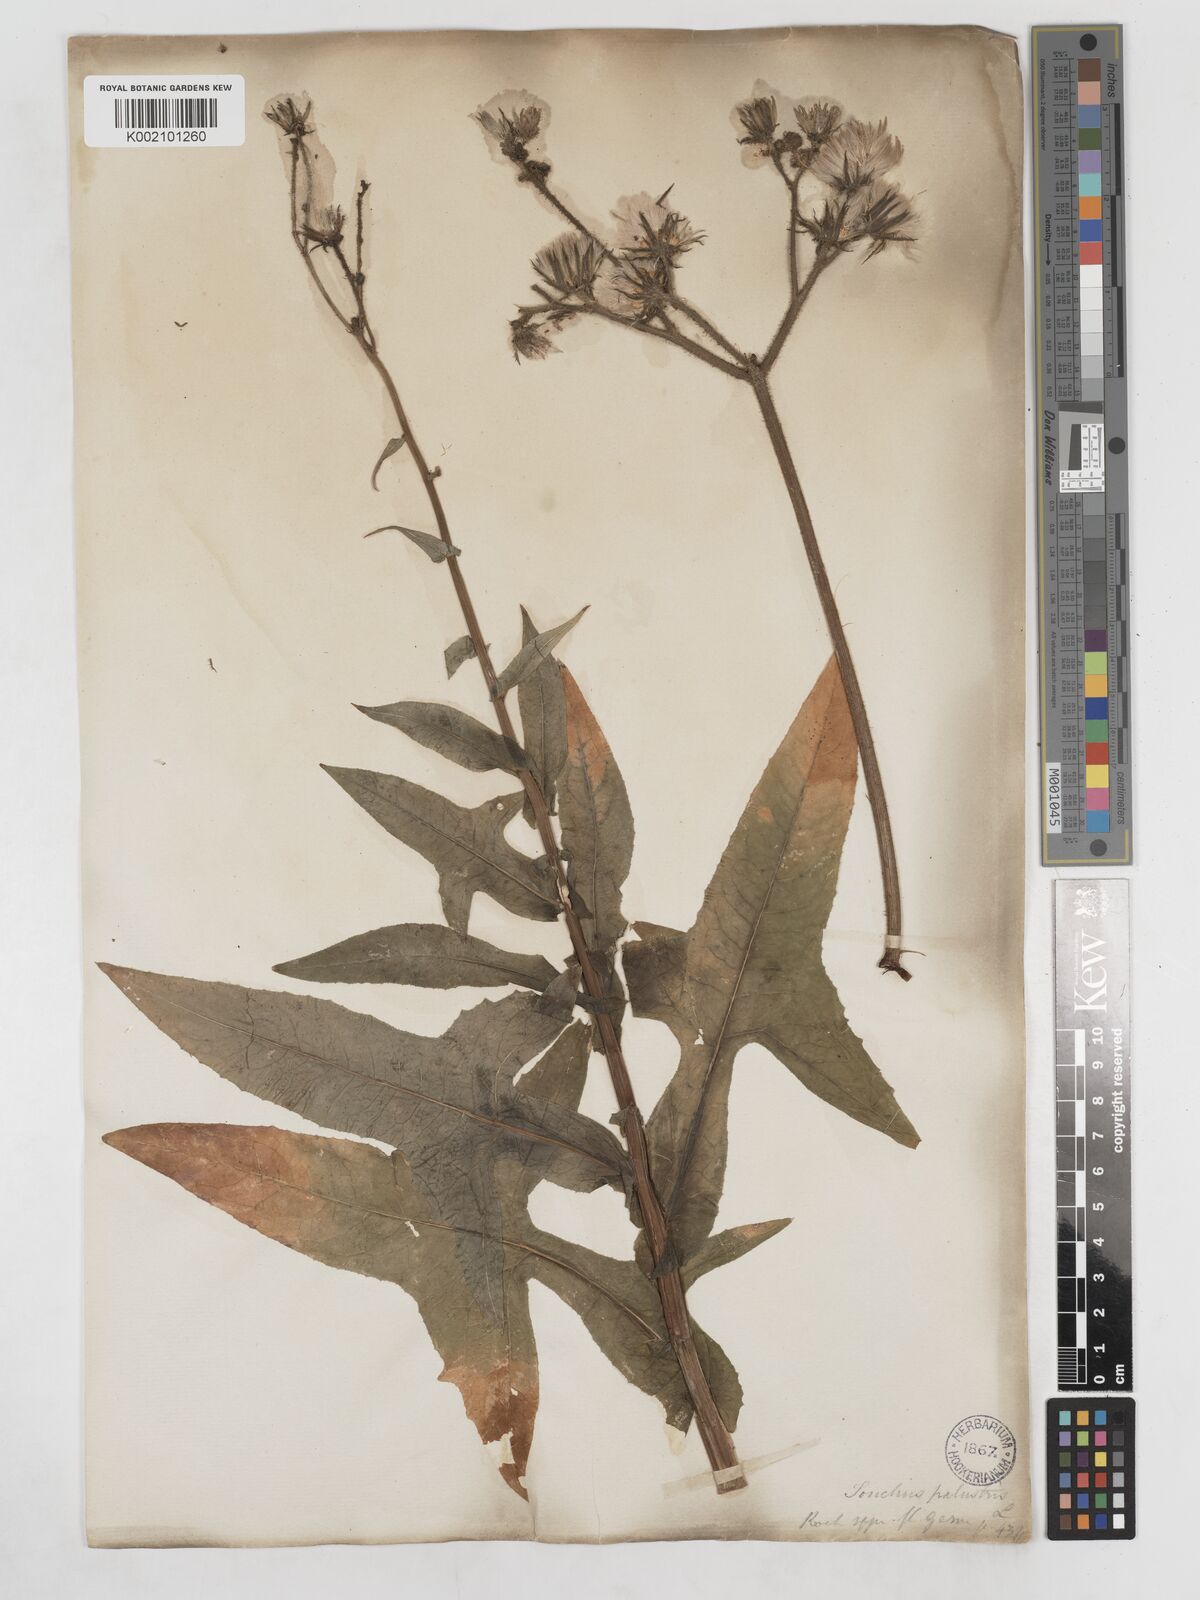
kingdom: Plantae
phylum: Tracheophyta
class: Magnoliopsida
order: Asterales
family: Asteraceae
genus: Sonchus
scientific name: Sonchus palustris
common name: Marsh sow-thistle
